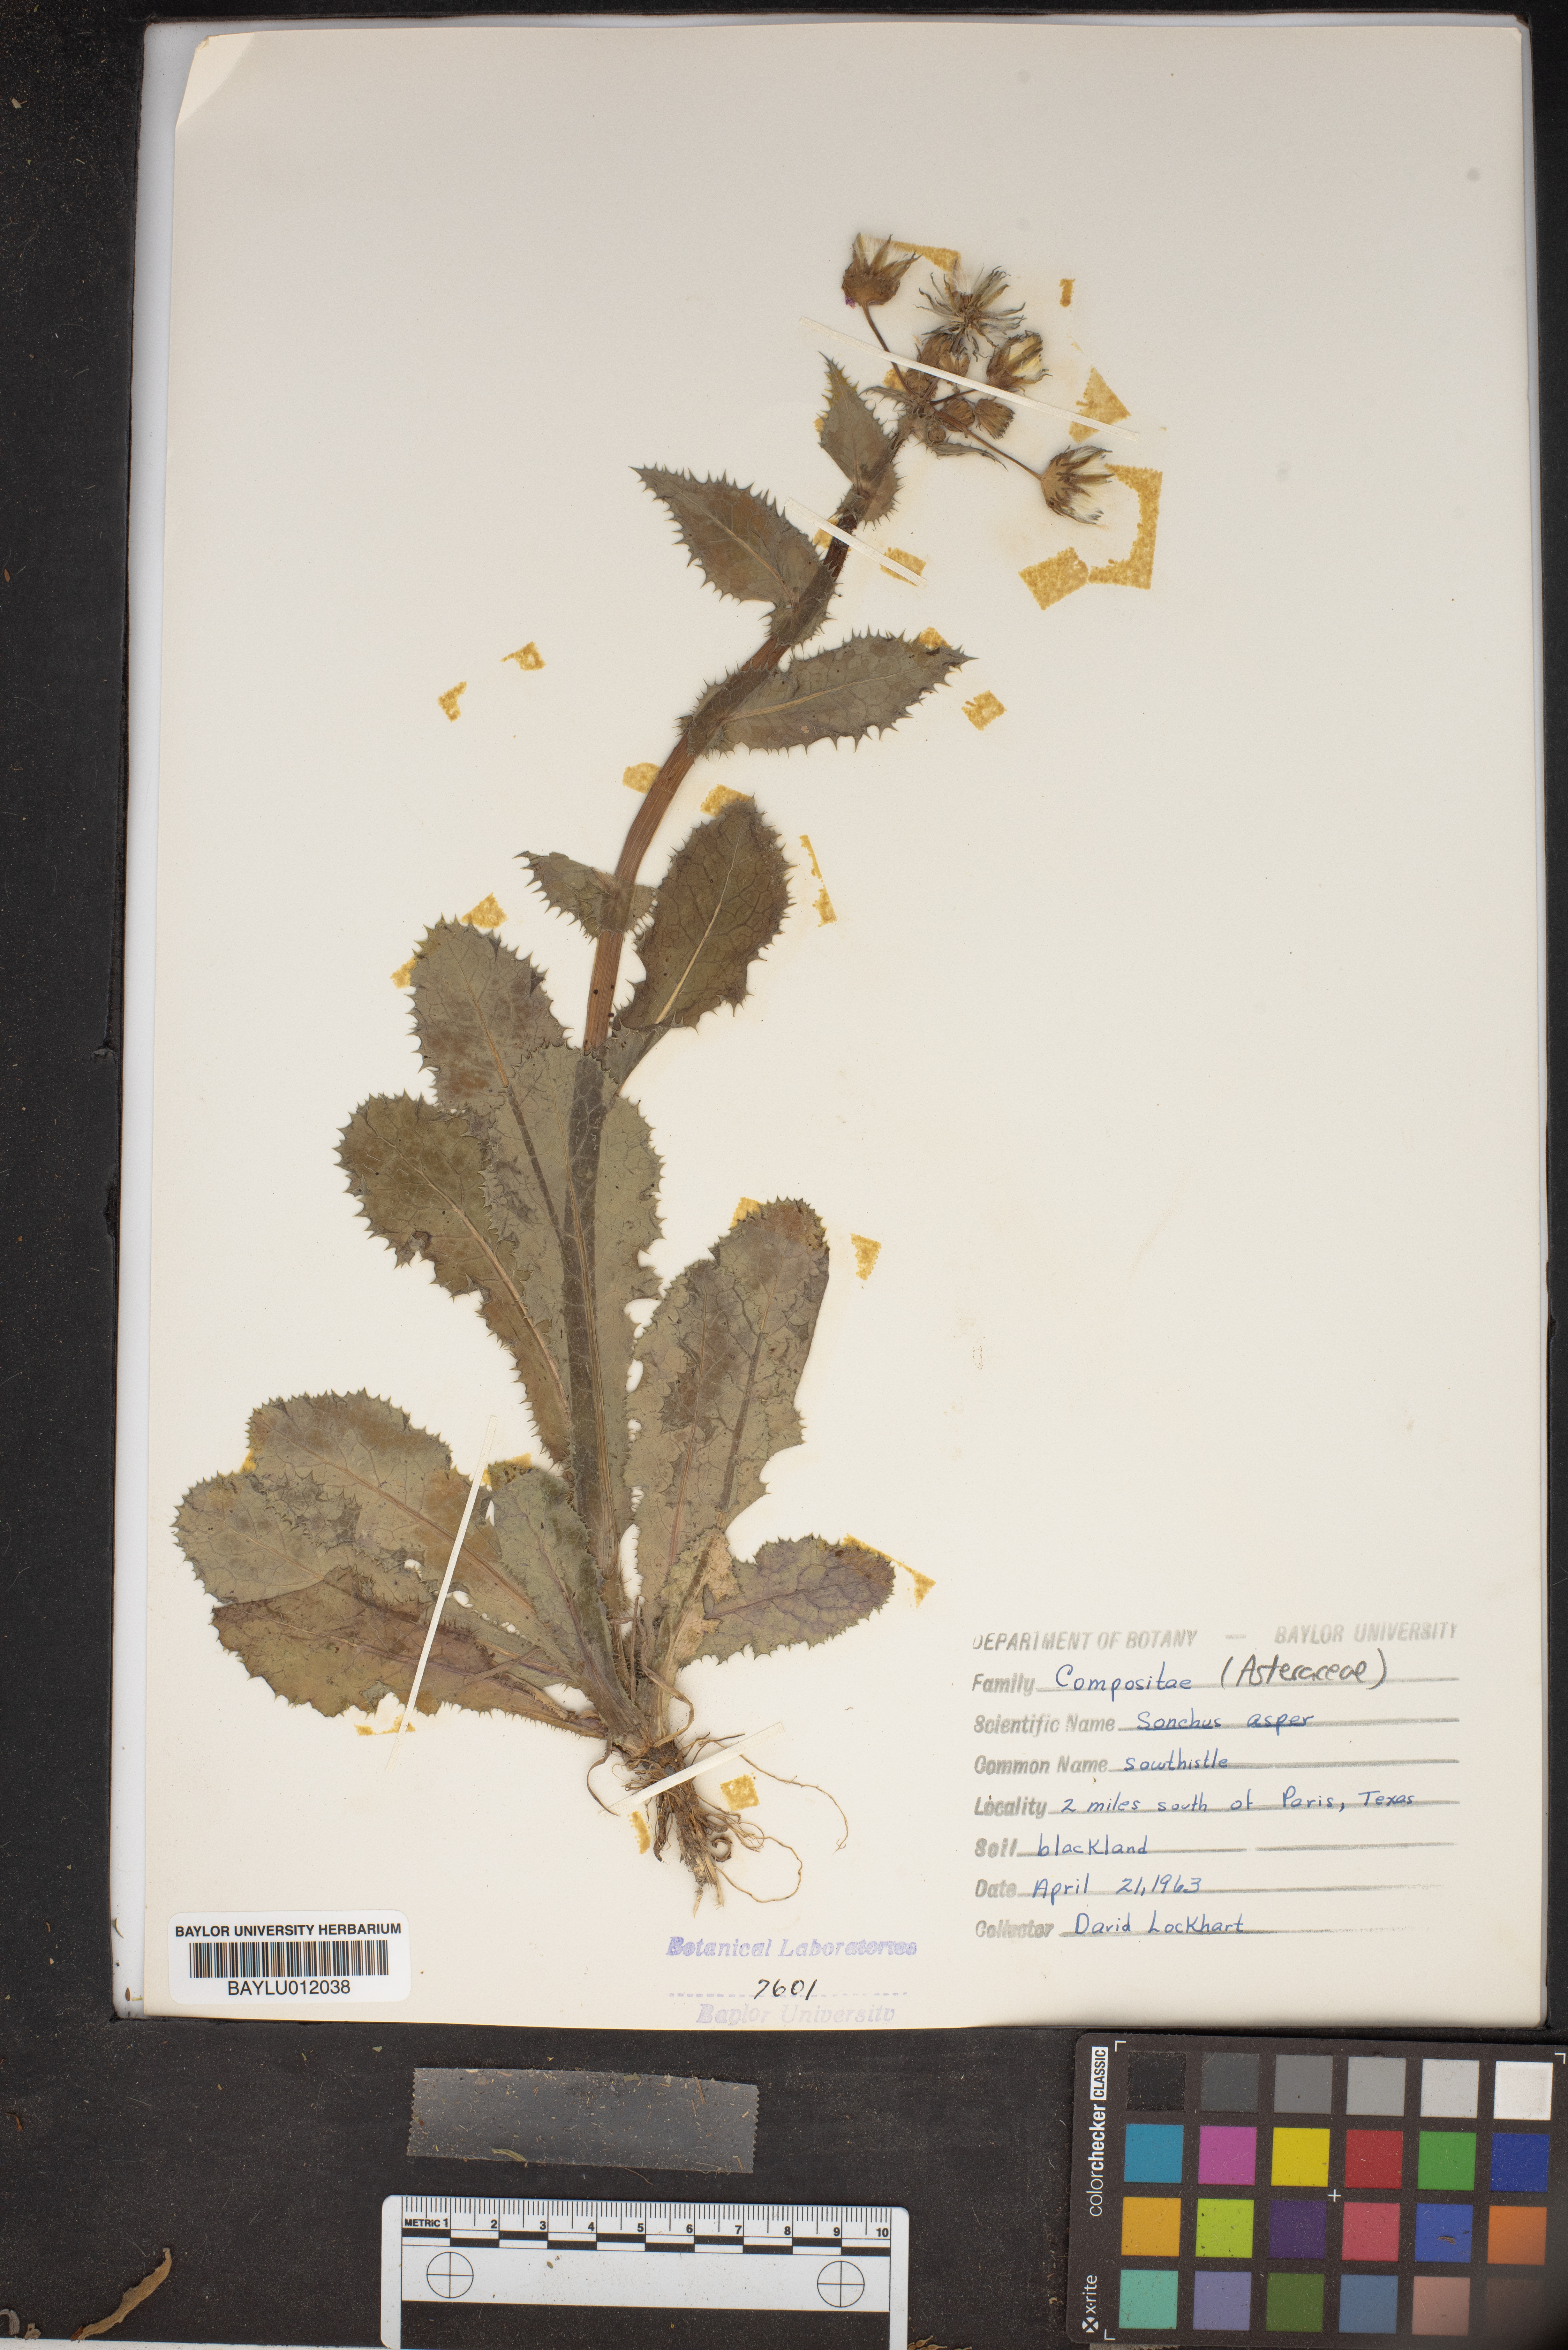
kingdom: Plantae
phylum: Tracheophyta
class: Magnoliopsida
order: Asterales
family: Asteraceae
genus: Sonchus
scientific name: Sonchus asper
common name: Prickly sow-thistle
